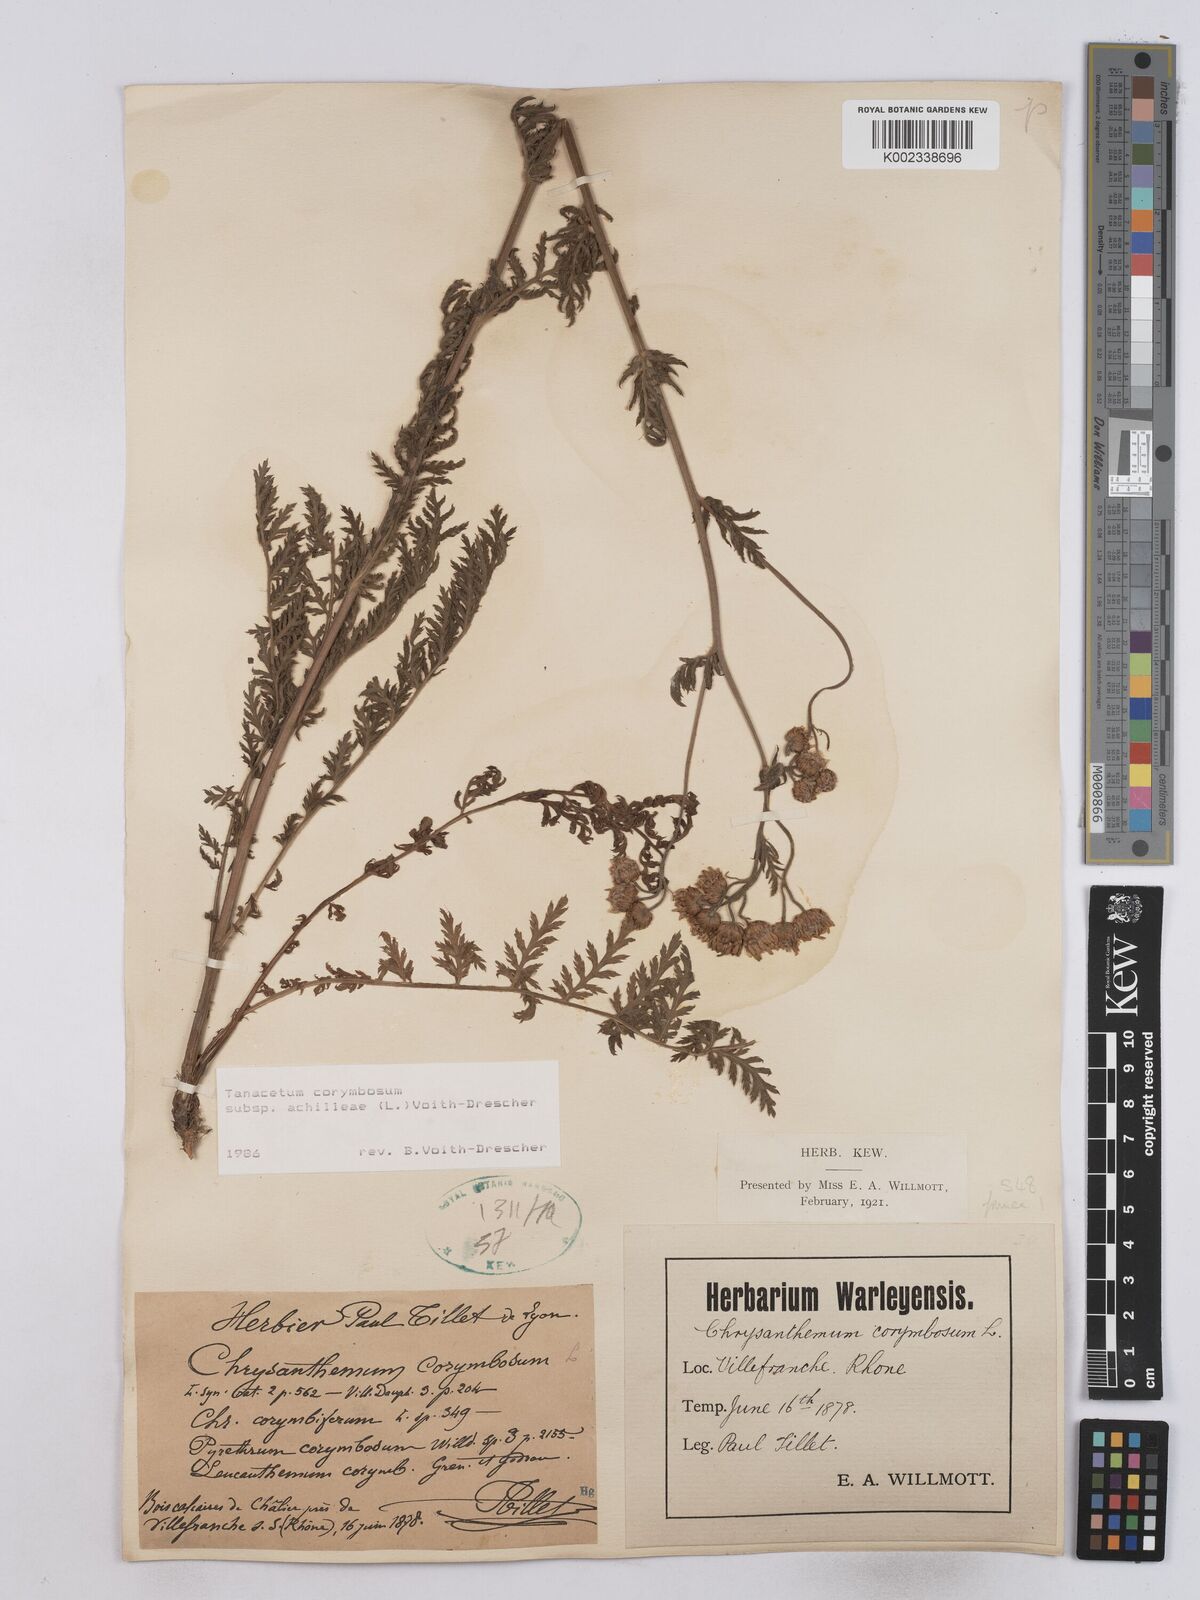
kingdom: Plantae
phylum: Tracheophyta
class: Magnoliopsida
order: Asterales
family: Asteraceae
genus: Tanacetum
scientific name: Tanacetum corymbosum
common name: Scentless feverfew
